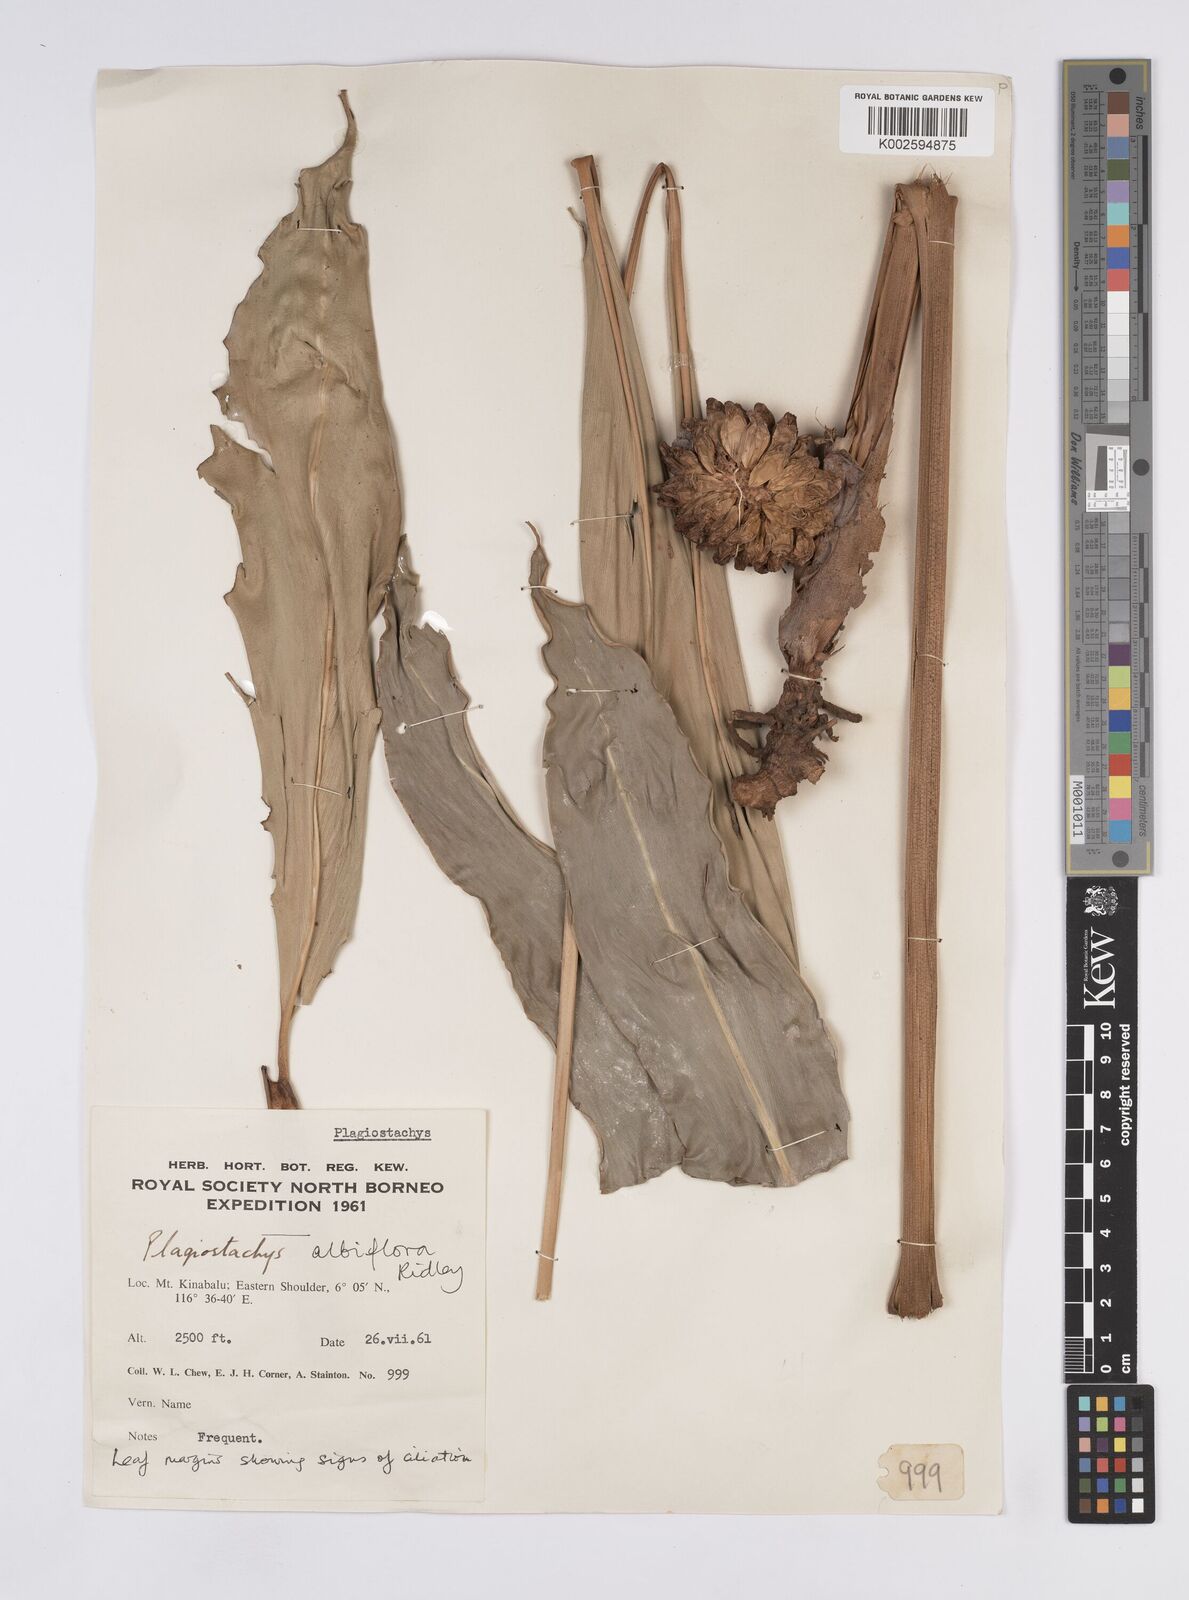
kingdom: Plantae
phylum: Tracheophyta
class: Liliopsida
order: Zingiberales
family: Zingiberaceae
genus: Plagiostachys
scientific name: Plagiostachys albiflora
